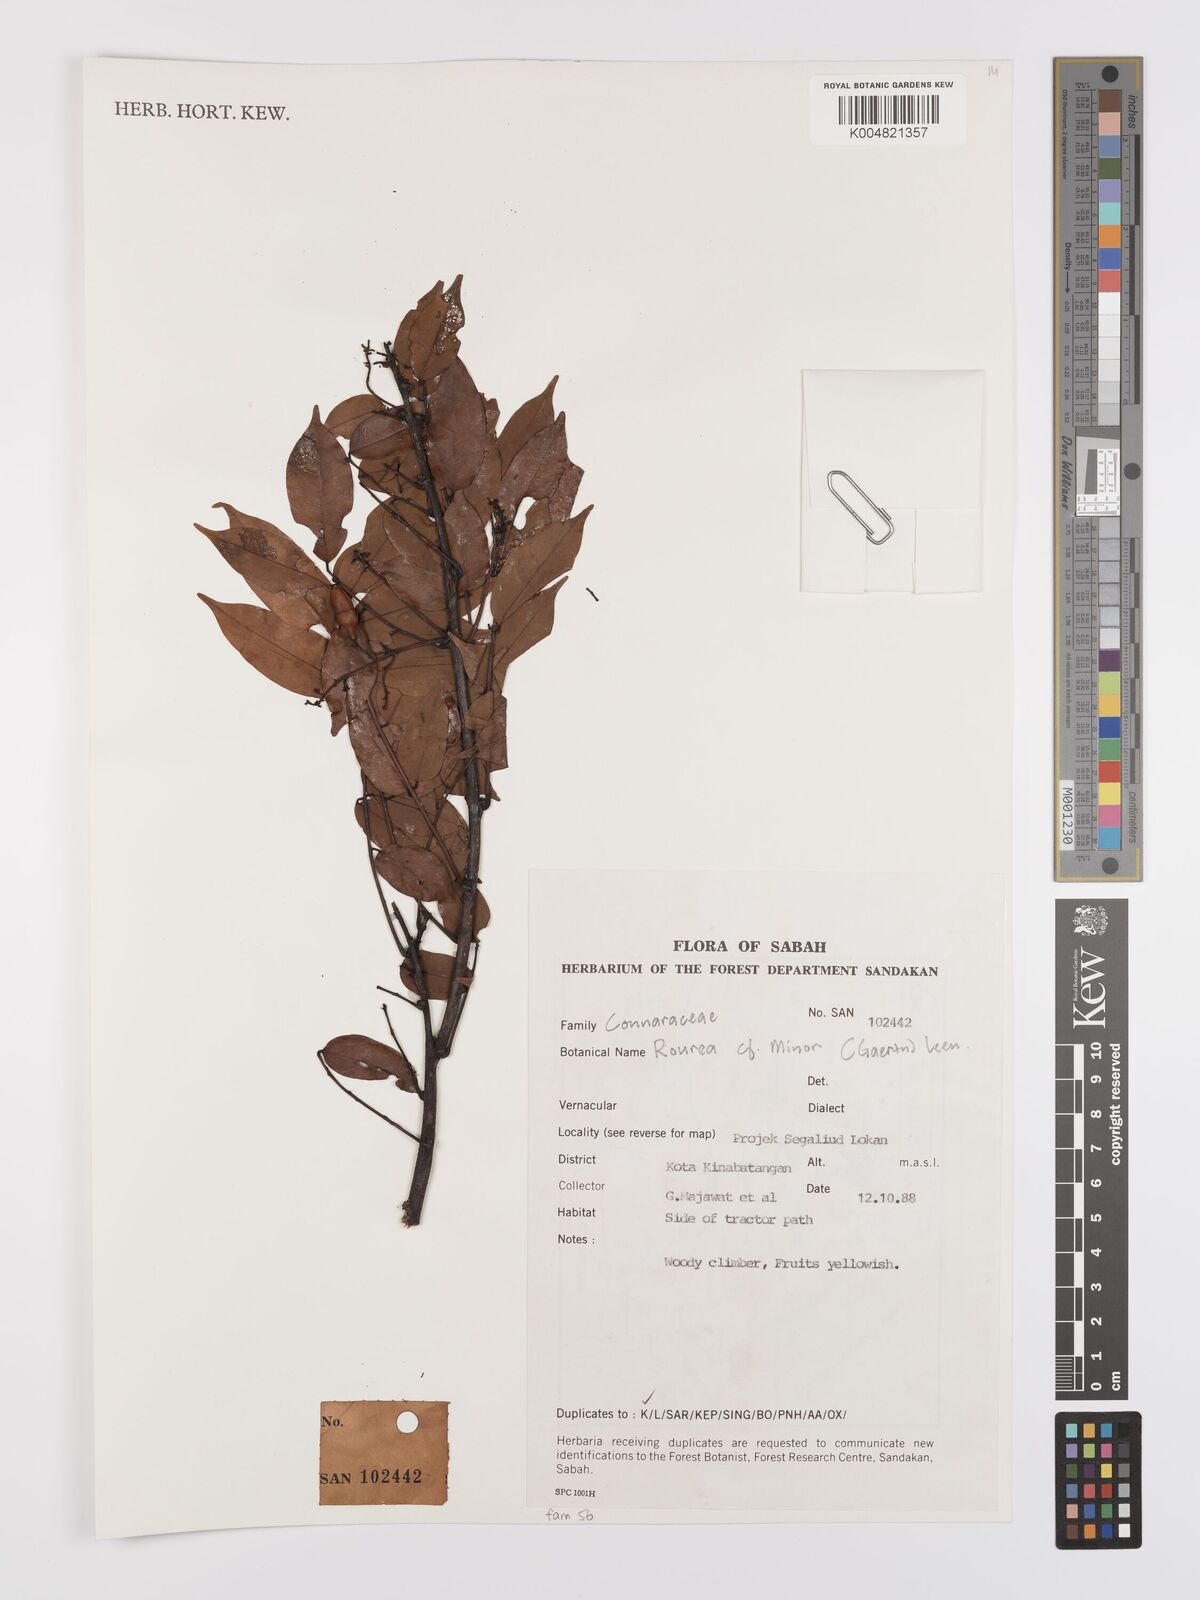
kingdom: Plantae
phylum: Tracheophyta
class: Magnoliopsida
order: Oxalidales
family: Connaraceae
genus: Rourea
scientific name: Rourea minor
